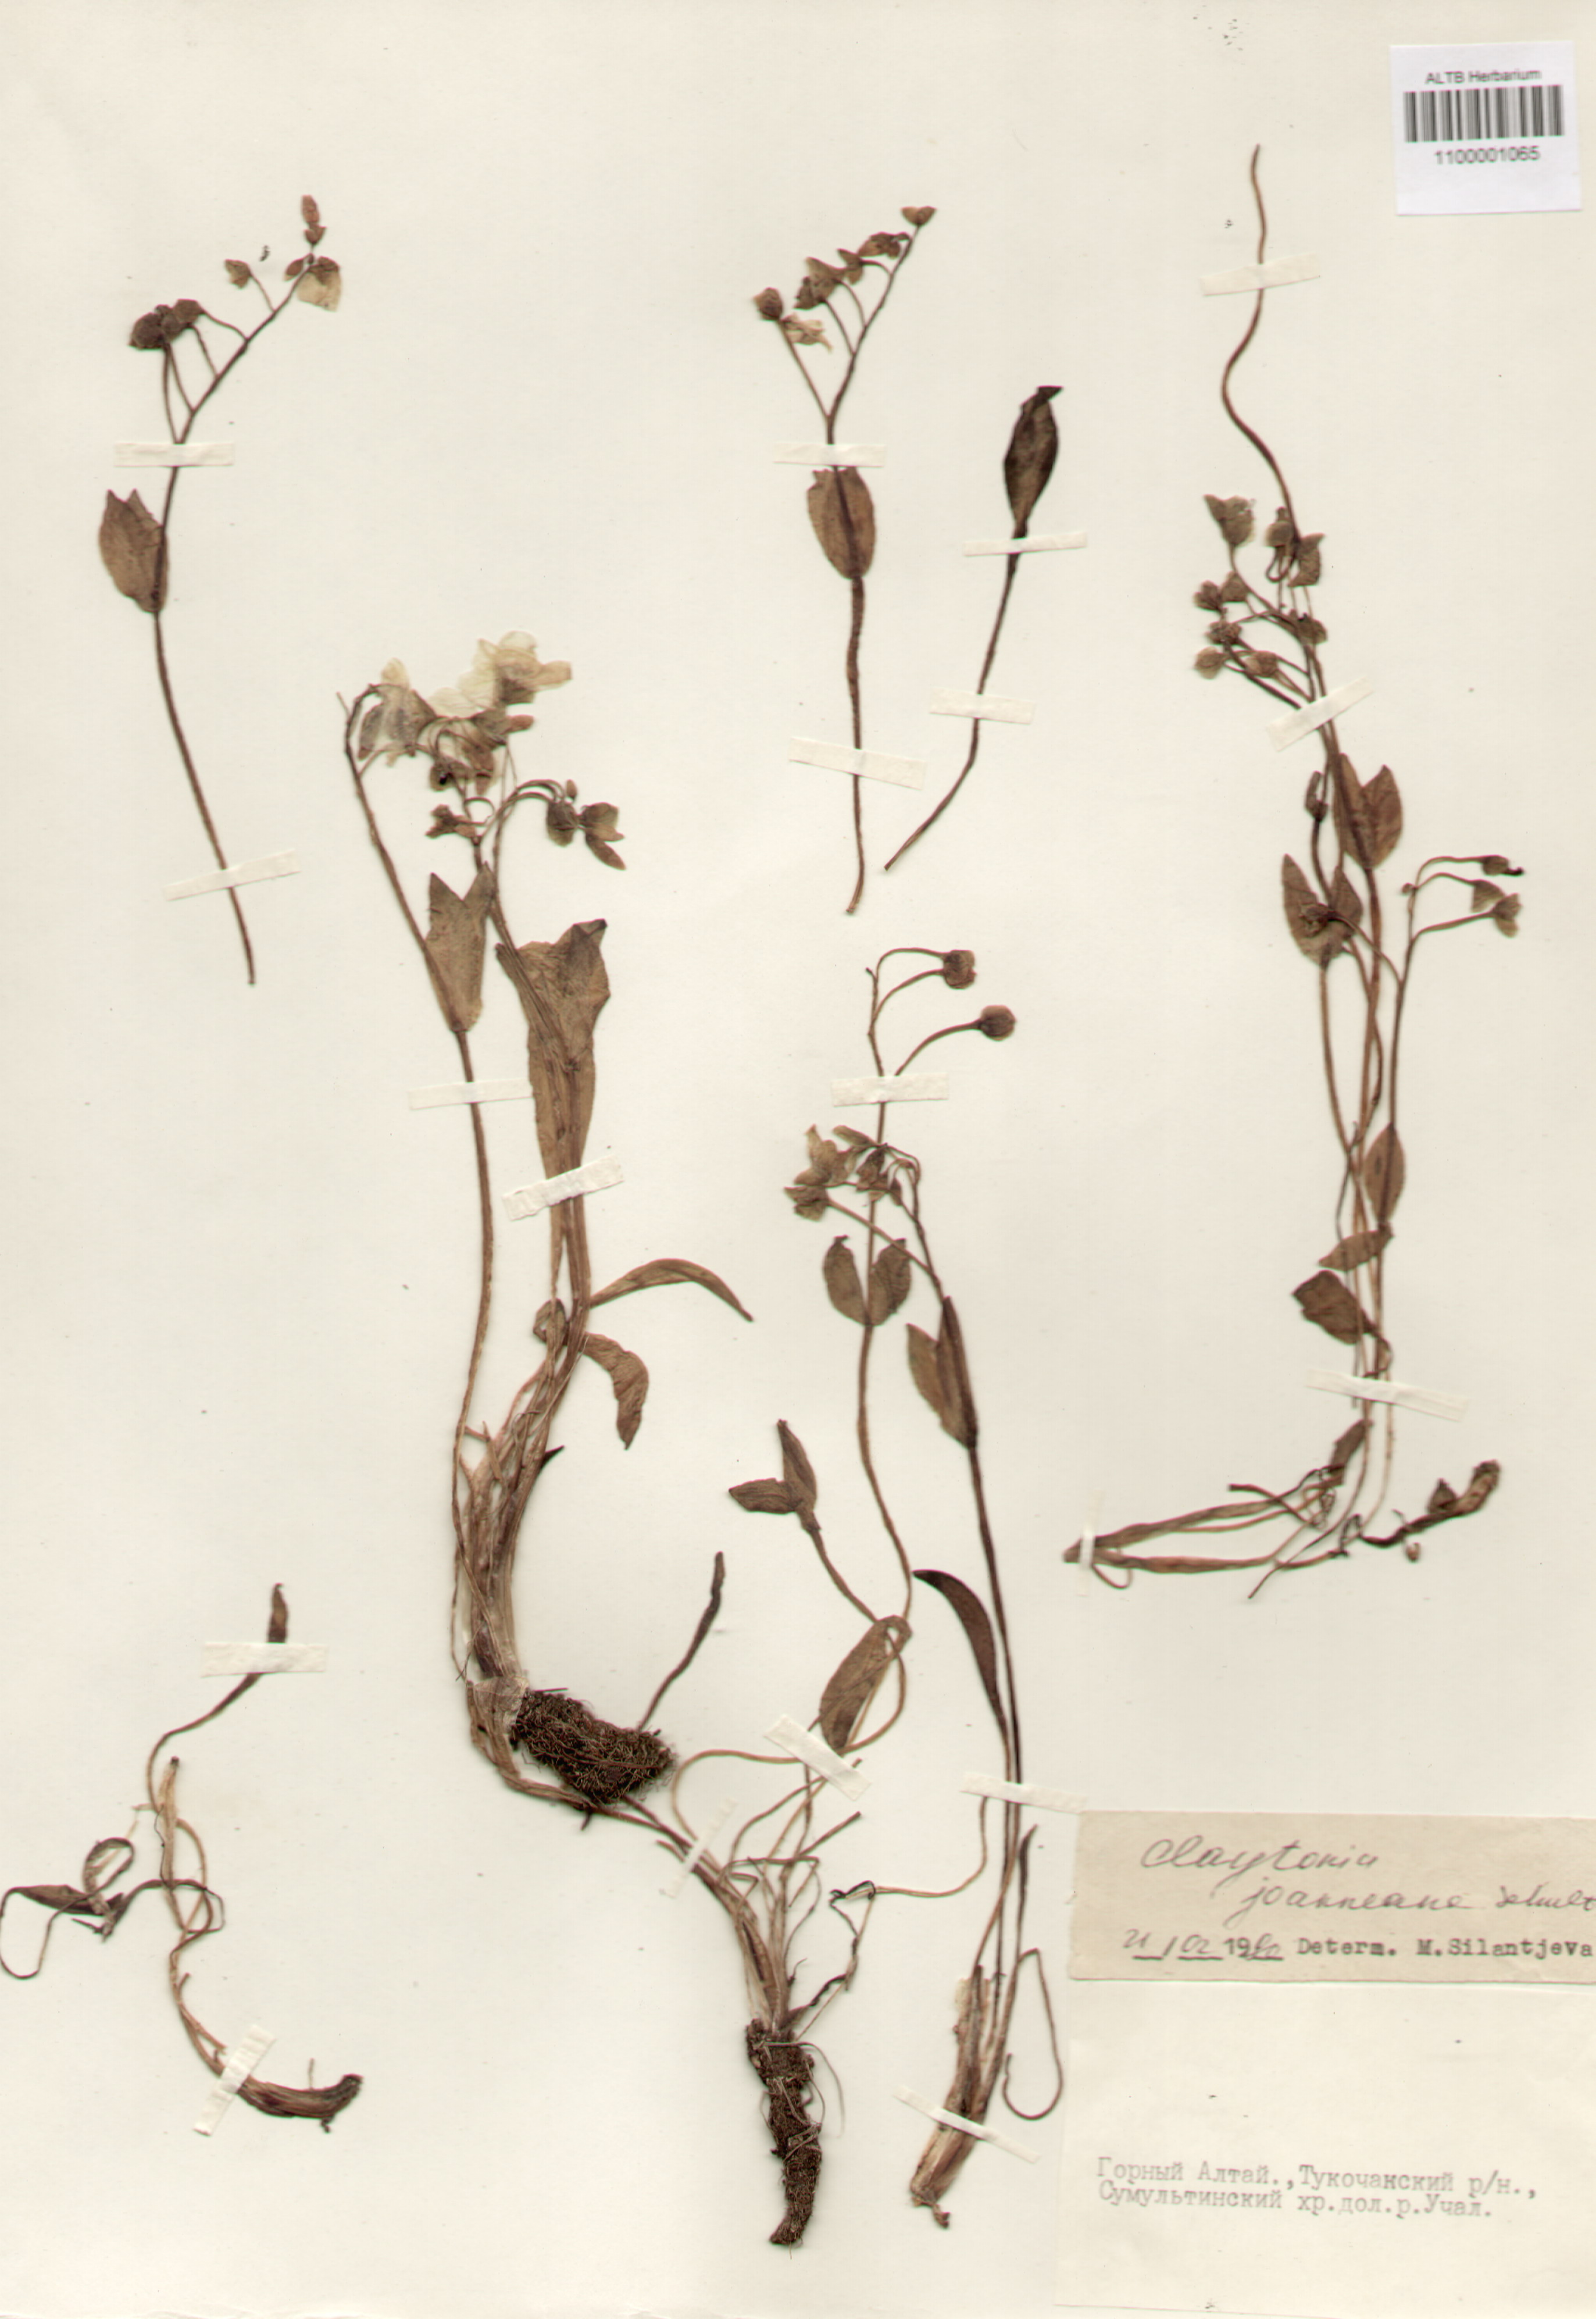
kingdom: Plantae
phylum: Tracheophyta
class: Magnoliopsida
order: Caryophyllales
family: Montiaceae
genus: Claytonia
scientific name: Claytonia joanneana
